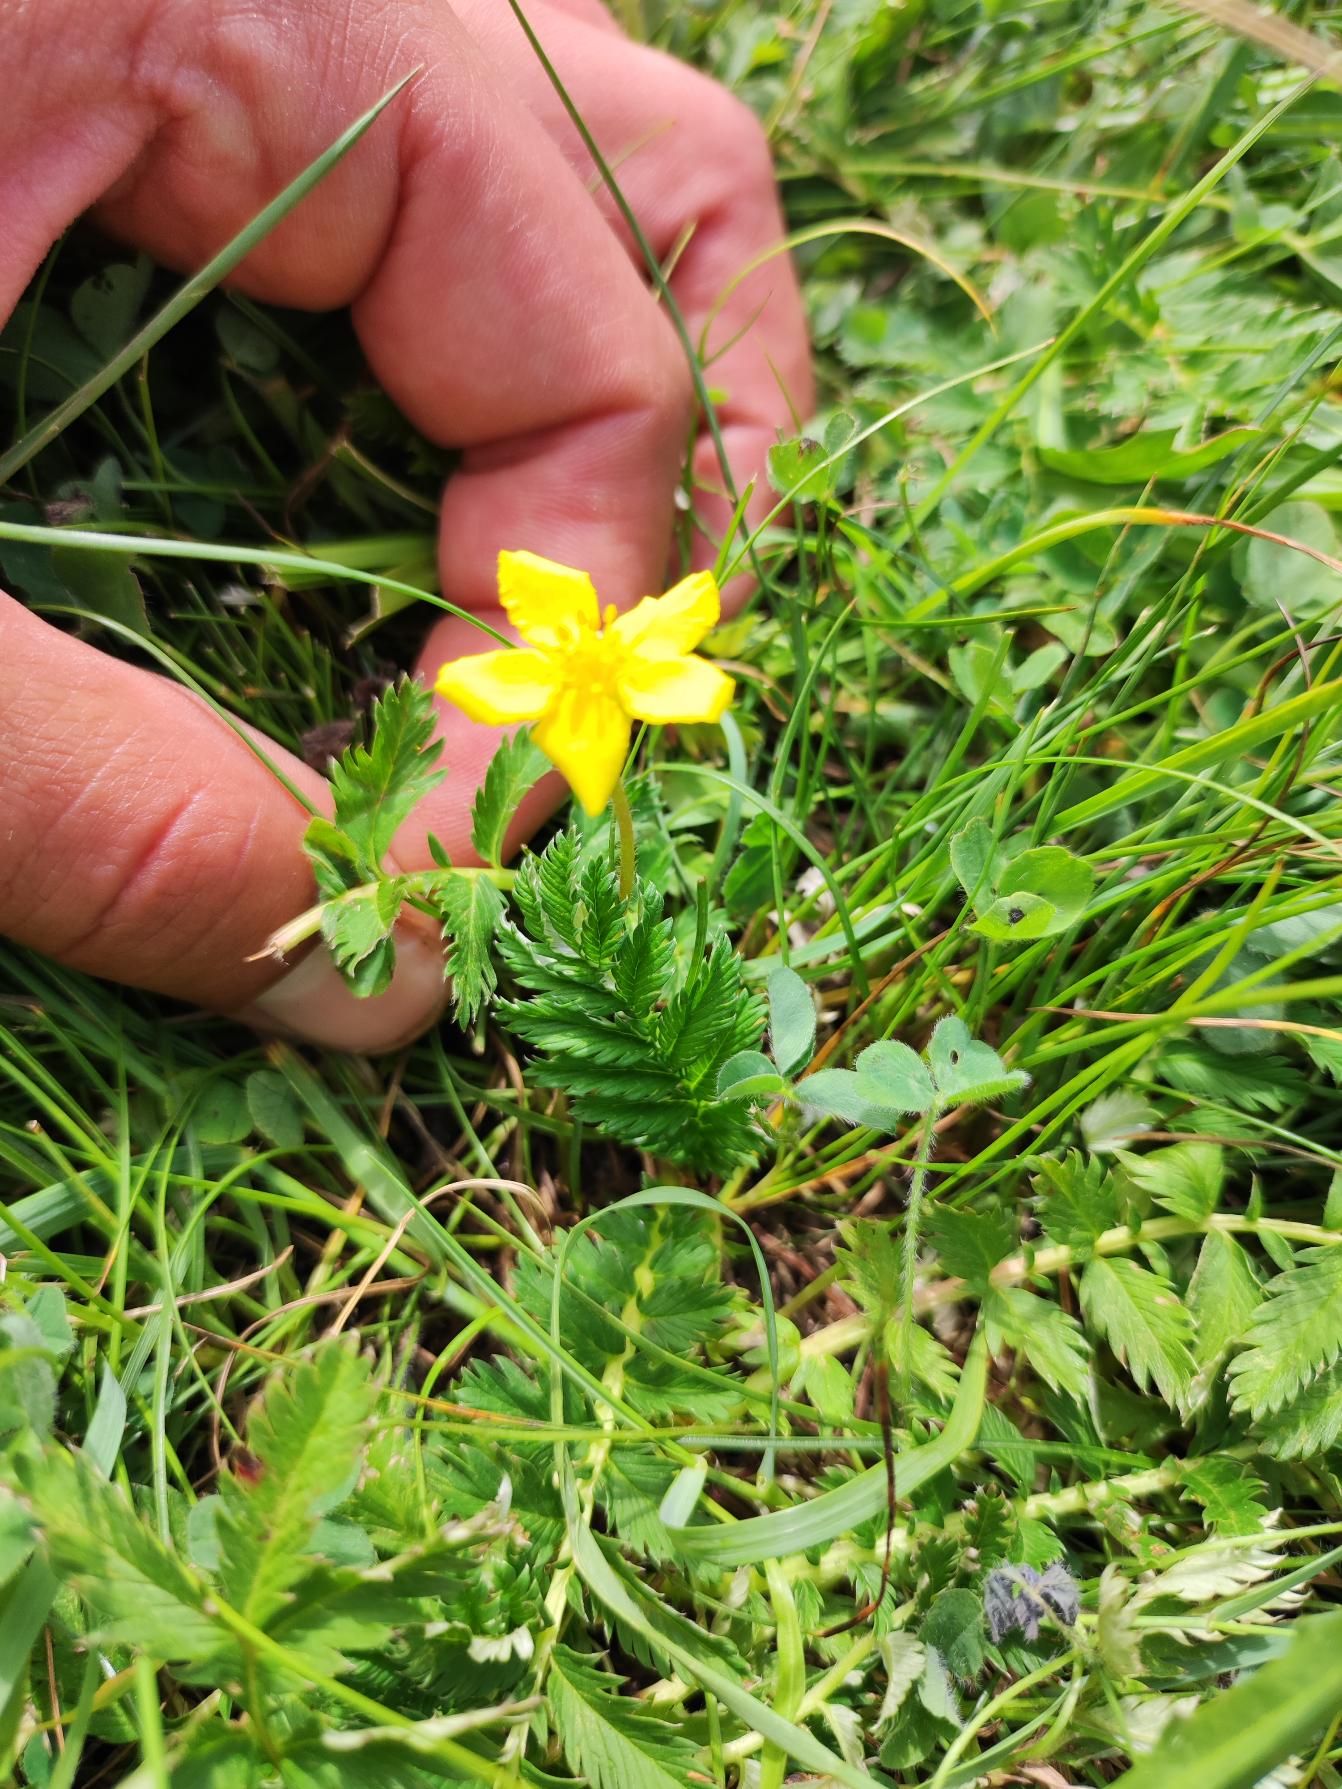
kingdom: Plantae
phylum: Tracheophyta
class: Magnoliopsida
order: Rosales
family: Rosaceae
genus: Argentina
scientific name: Argentina anserina
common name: Gåsepotentil
